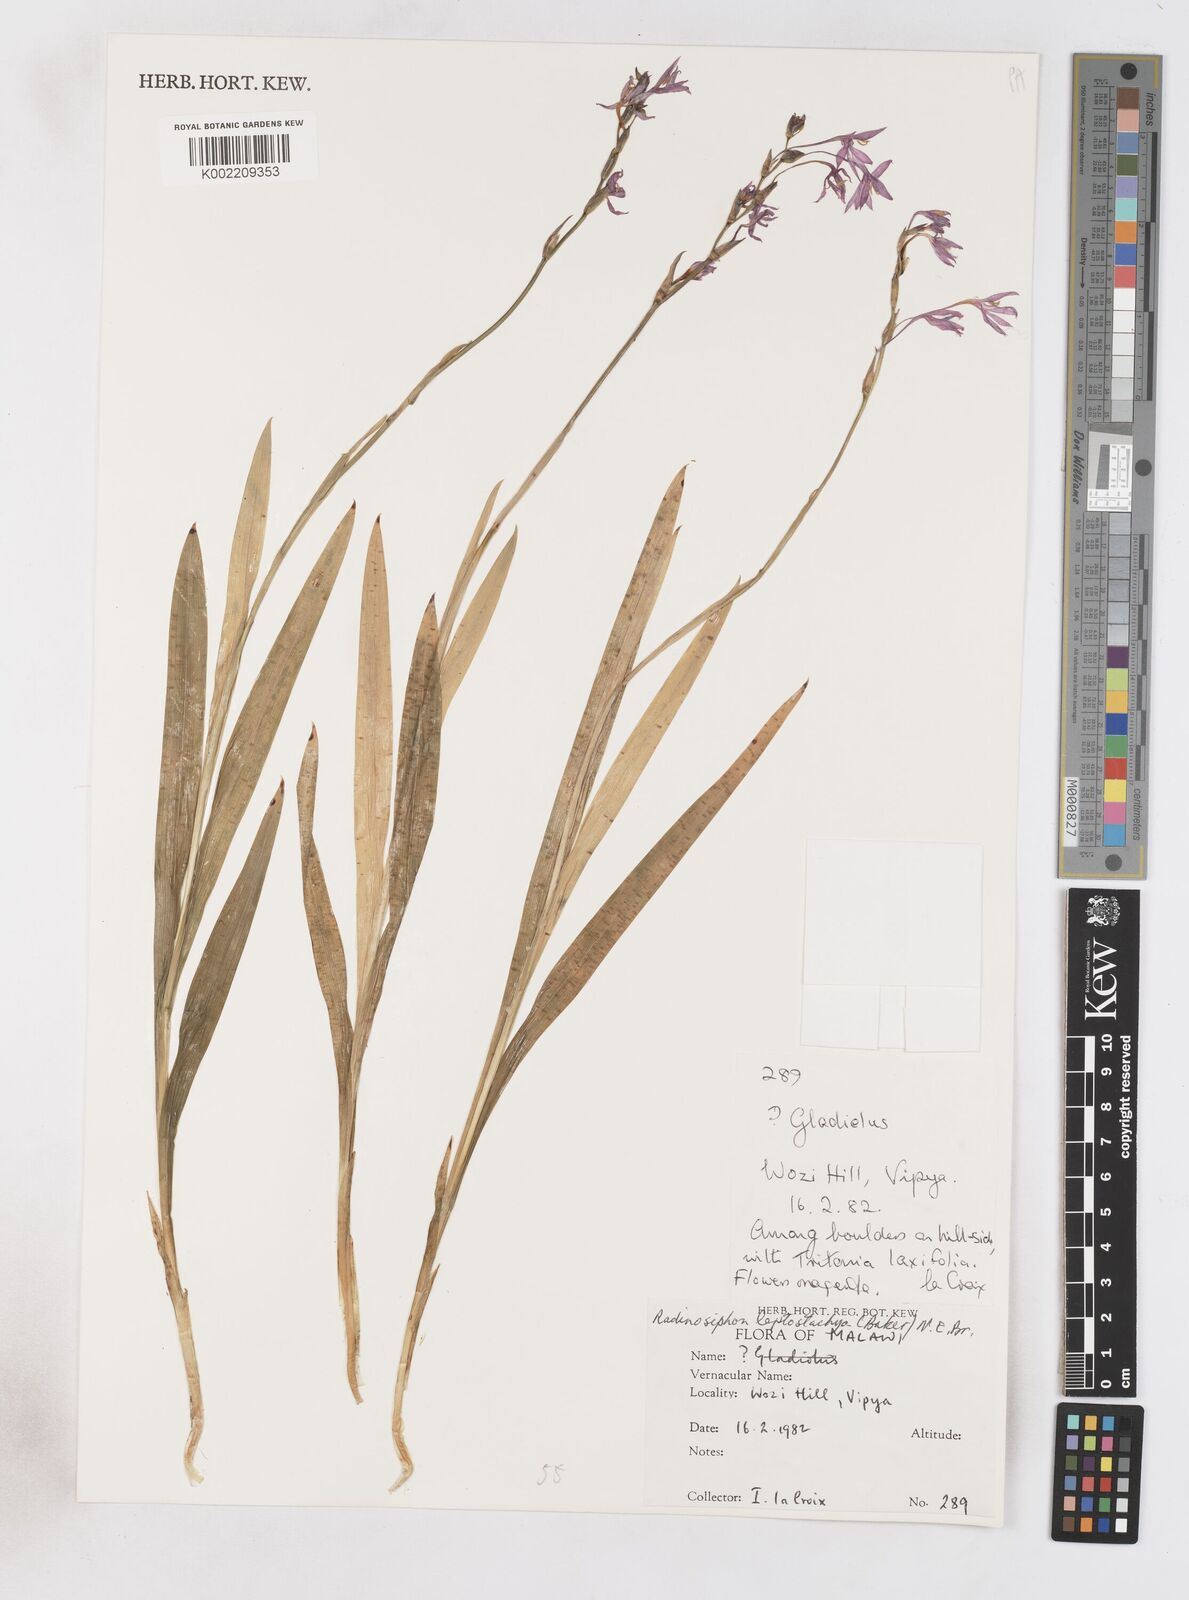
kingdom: Plantae
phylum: Tracheophyta
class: Liliopsida
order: Asparagales
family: Iridaceae
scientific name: Iridaceae
